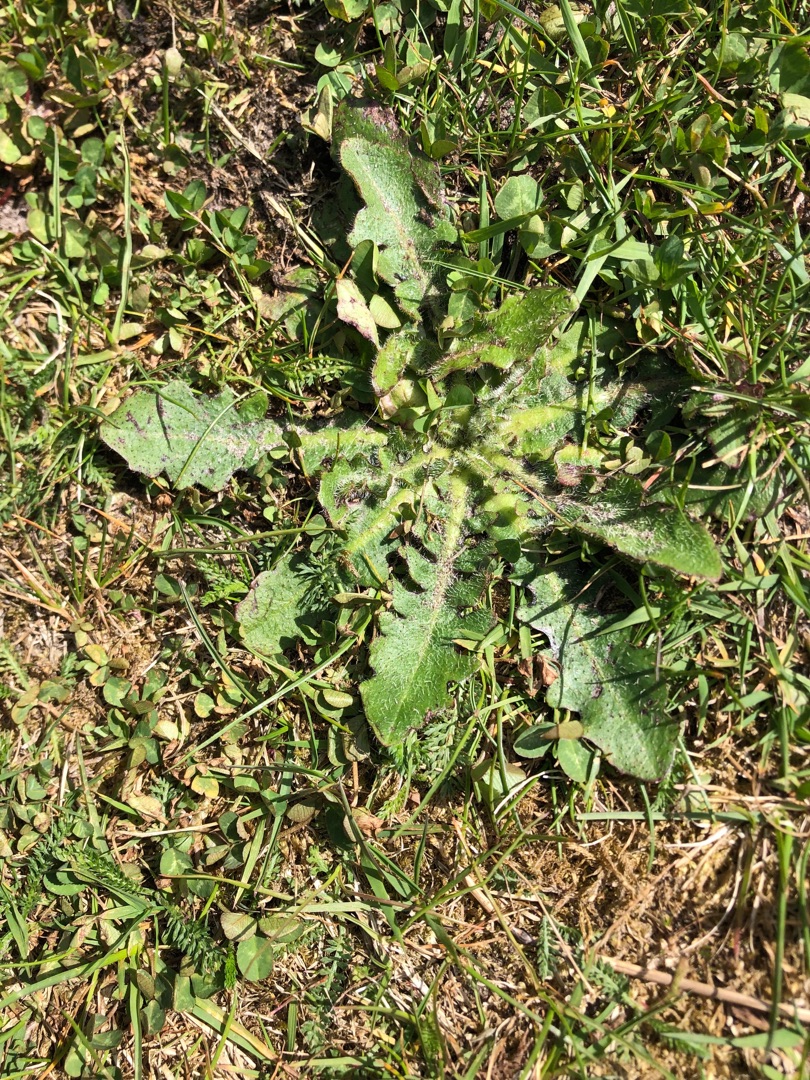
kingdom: Plantae
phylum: Tracheophyta
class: Magnoliopsida
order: Asterales
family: Asteraceae
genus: Hypochaeris
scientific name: Hypochaeris radicata
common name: Almindelig kongepen
